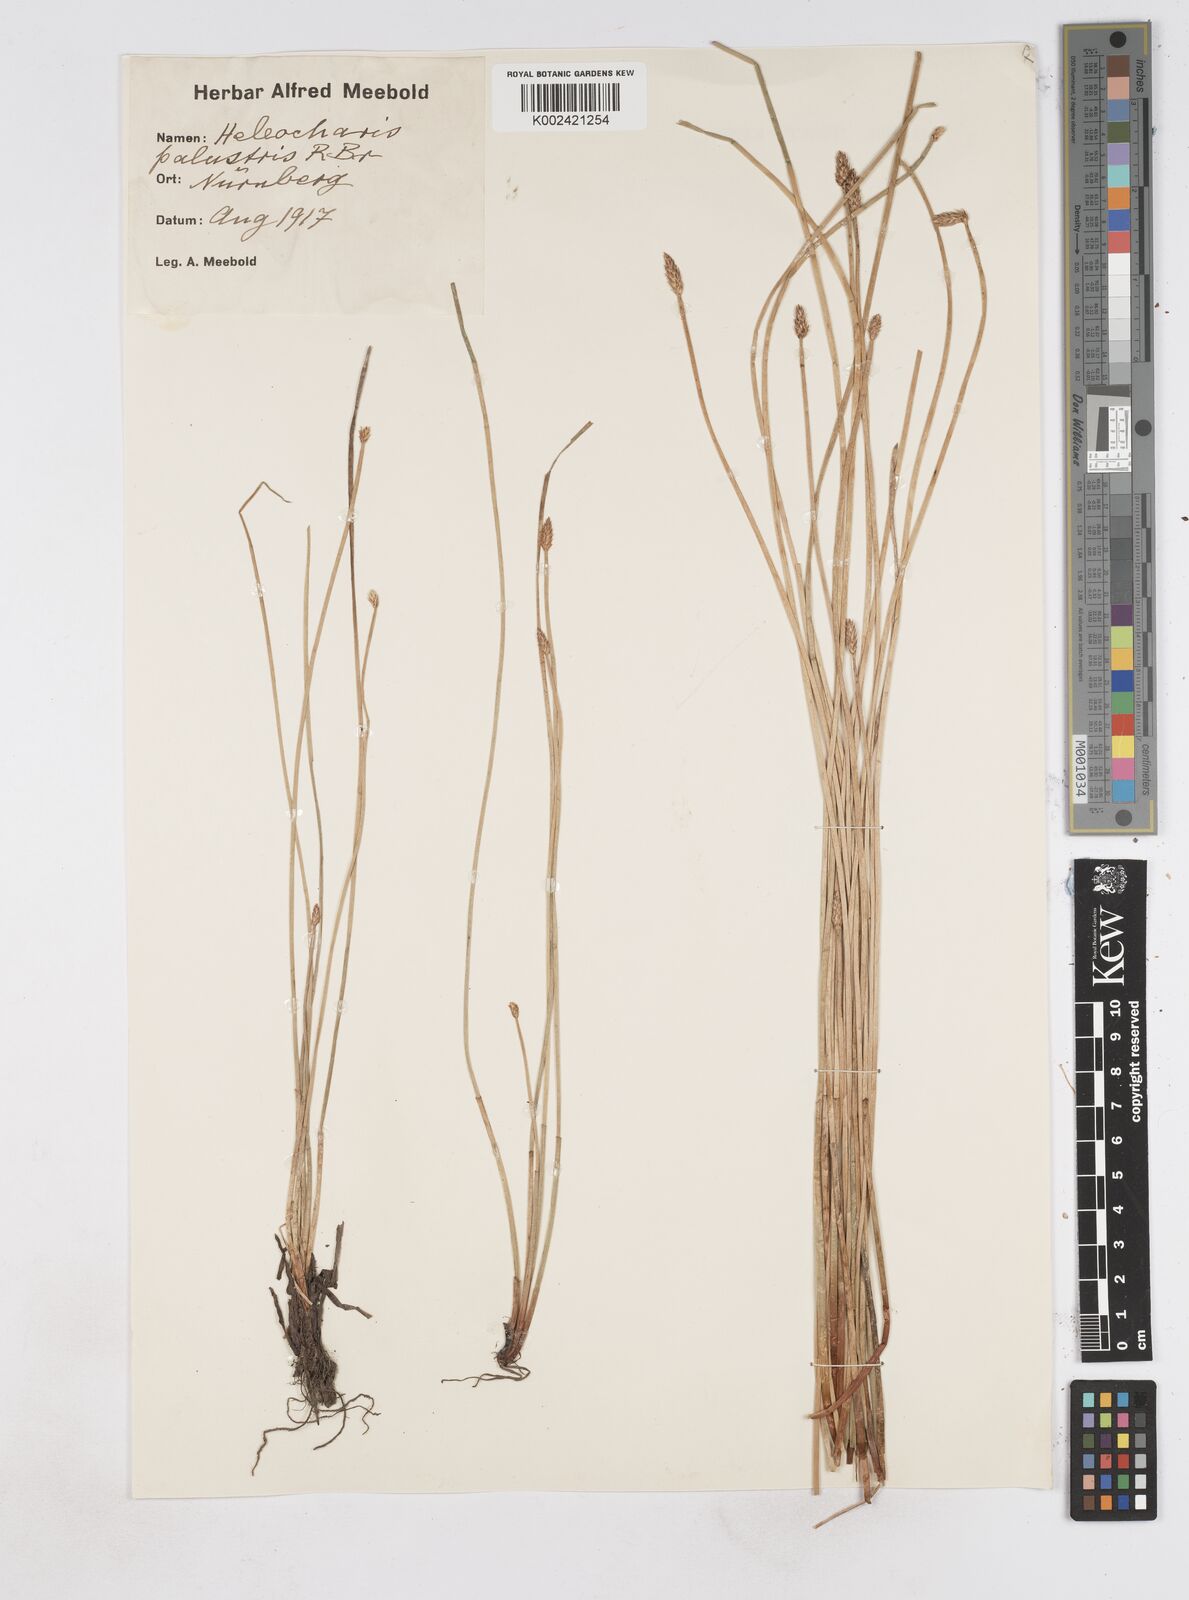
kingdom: Plantae
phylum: Tracheophyta
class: Liliopsida
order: Poales
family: Cyperaceae
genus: Eleocharis
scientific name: Eleocharis palustris
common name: Common spike-rush
